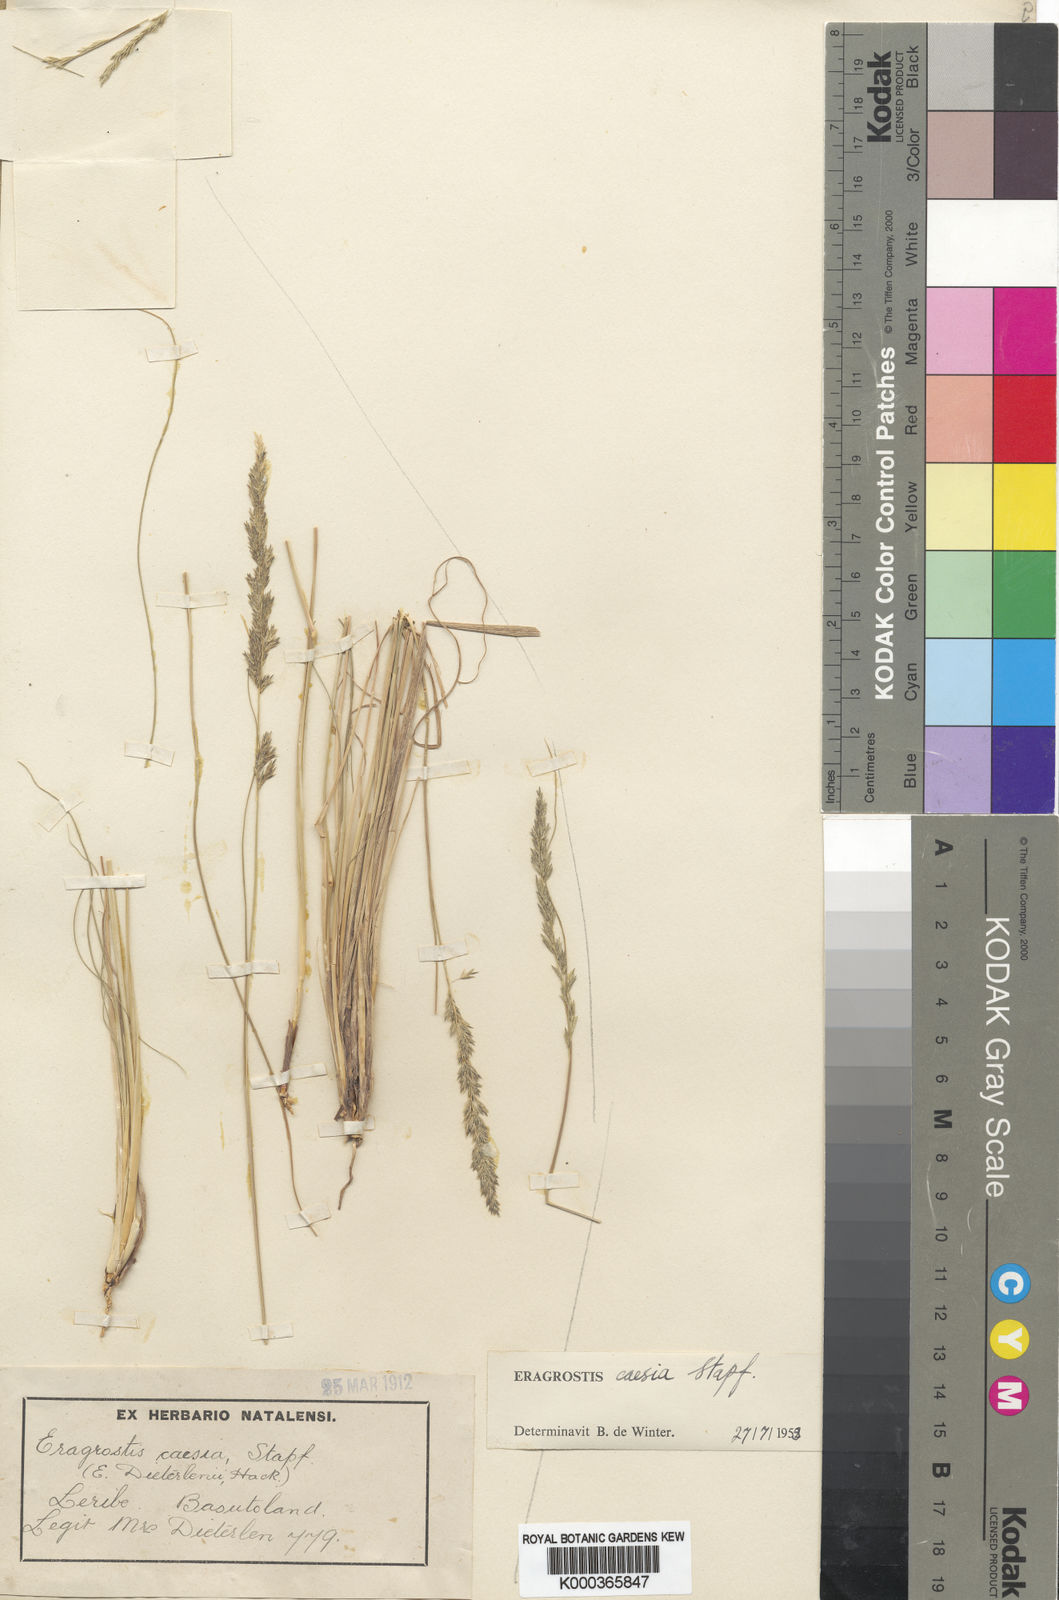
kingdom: Plantae
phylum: Tracheophyta
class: Liliopsida
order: Poales
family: Poaceae
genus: Eragrostis
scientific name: Eragrostis caesia
